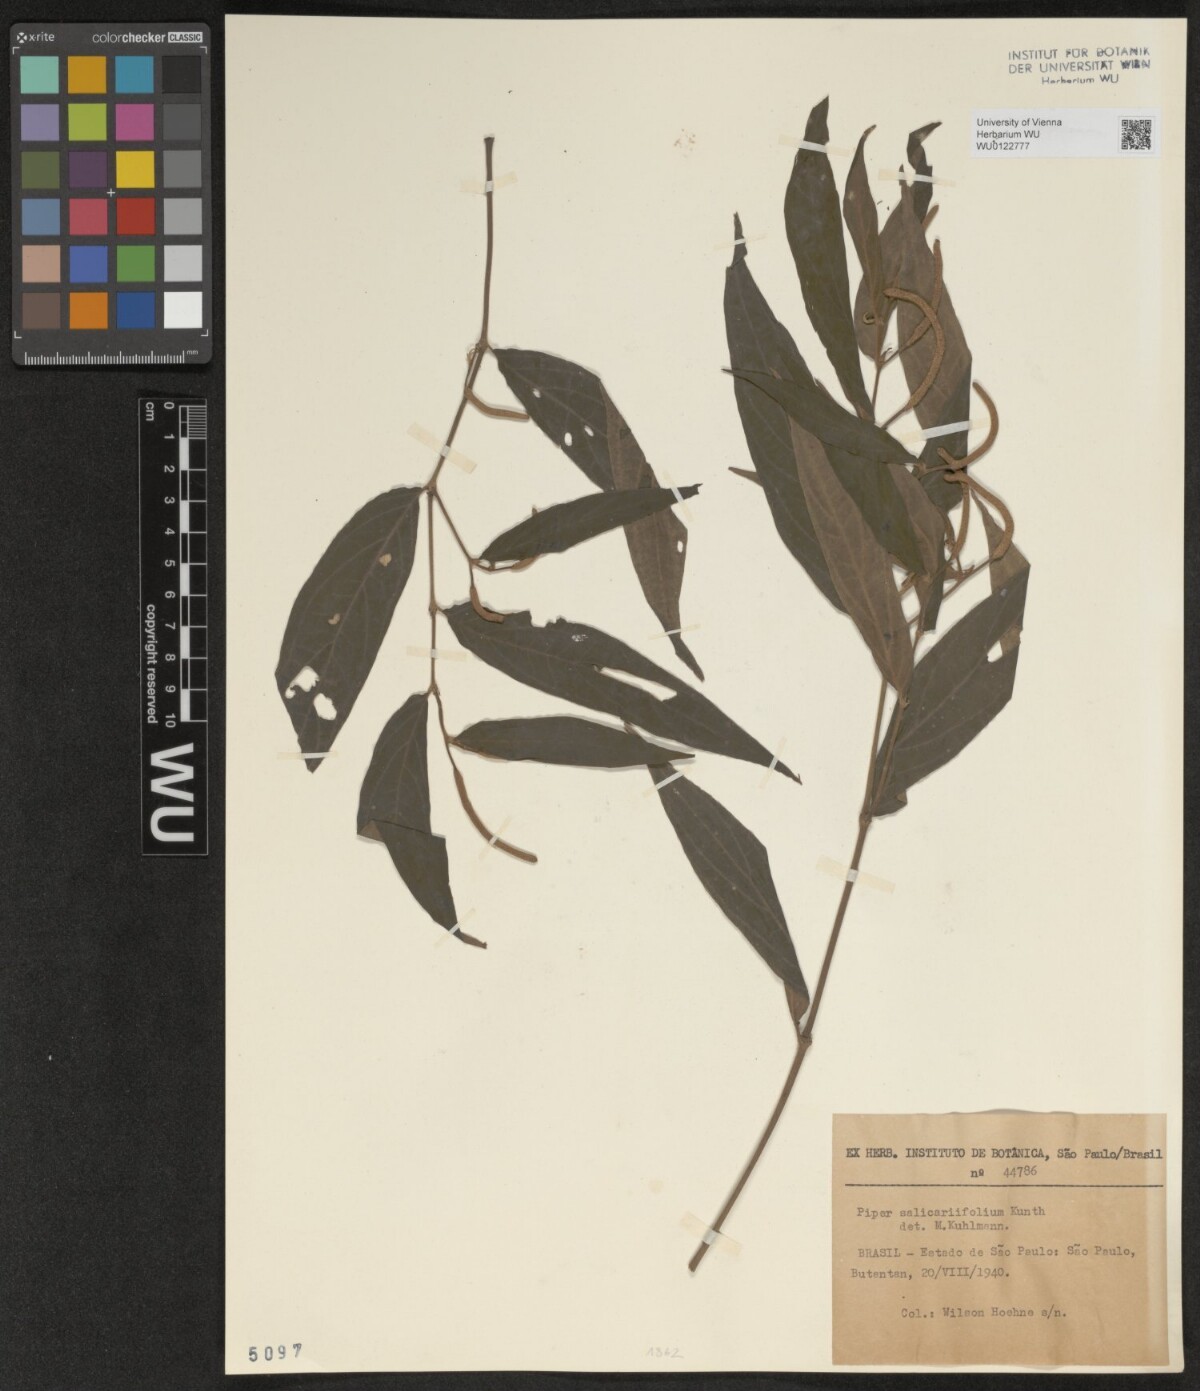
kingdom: Plantae
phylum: Tracheophyta
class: Magnoliopsida
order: Piperales
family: Piperaceae
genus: Piper
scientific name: Piper gaudichaudianum
